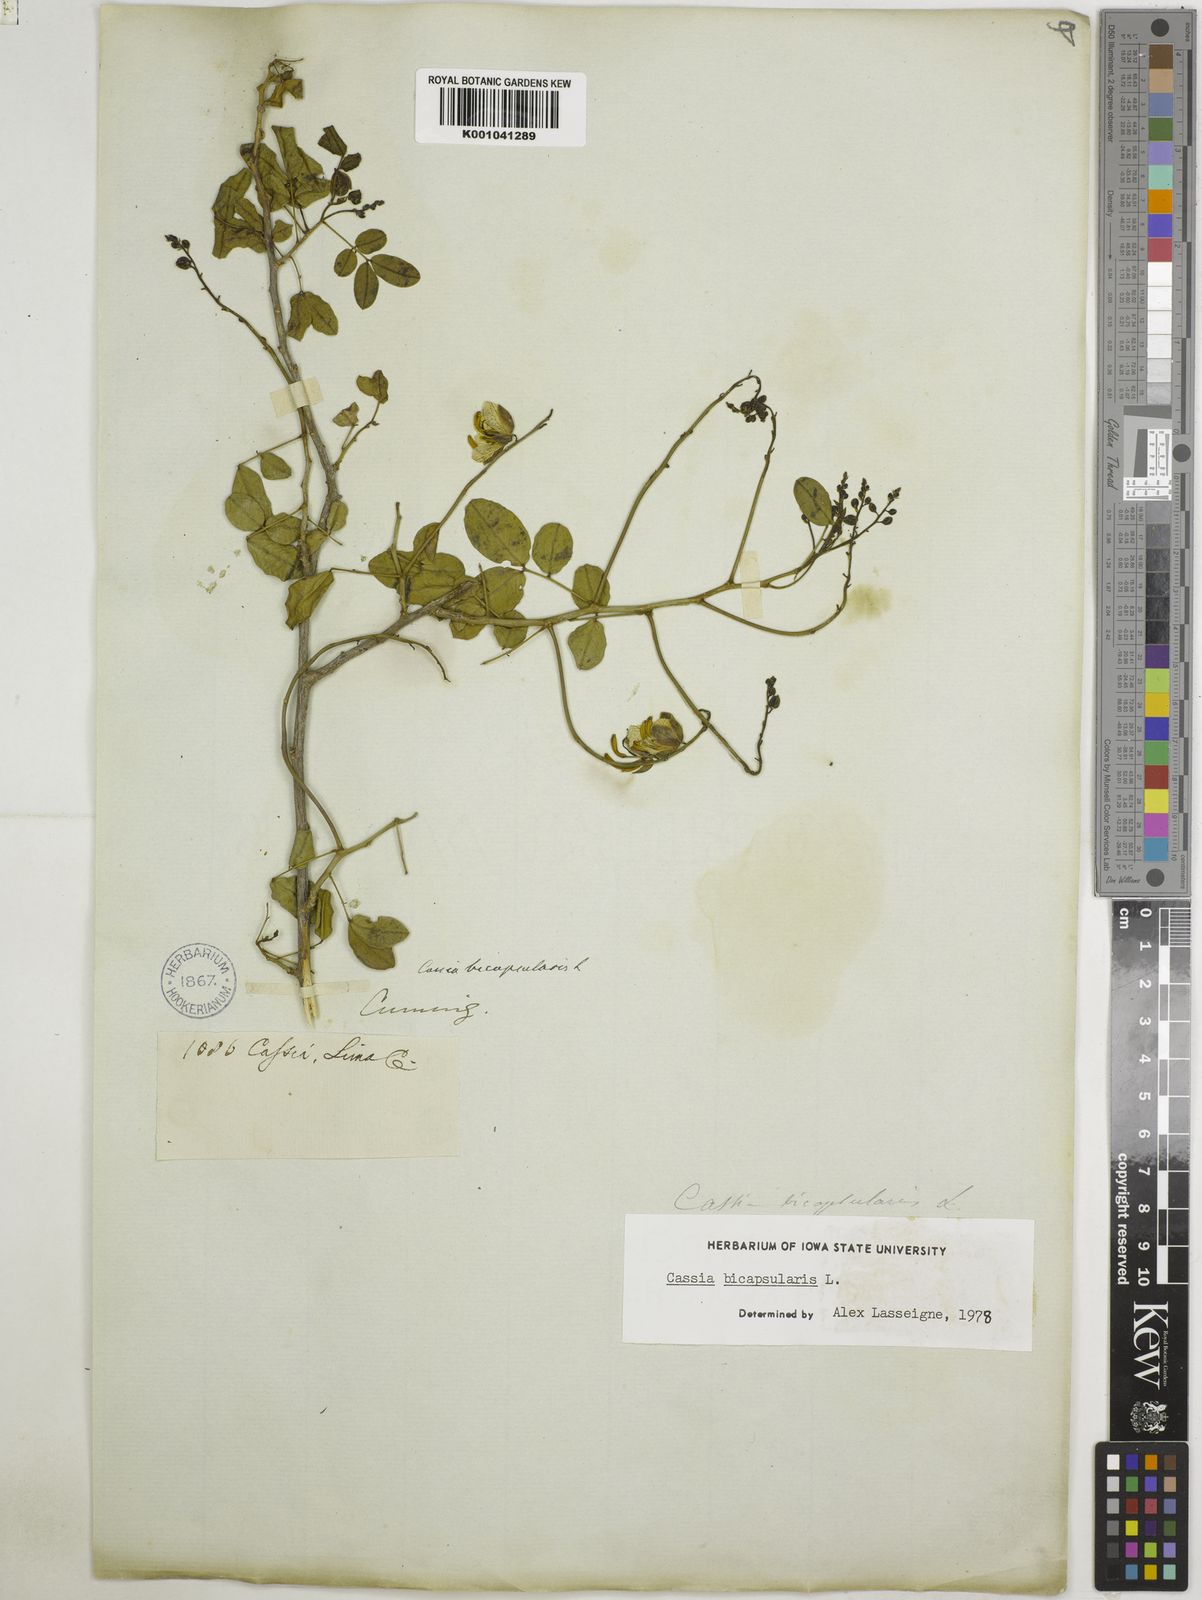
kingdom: Plantae
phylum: Tracheophyta
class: Magnoliopsida
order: Fabales
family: Fabaceae
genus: Senna
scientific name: Senna bicapsularis
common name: Christmasbush
